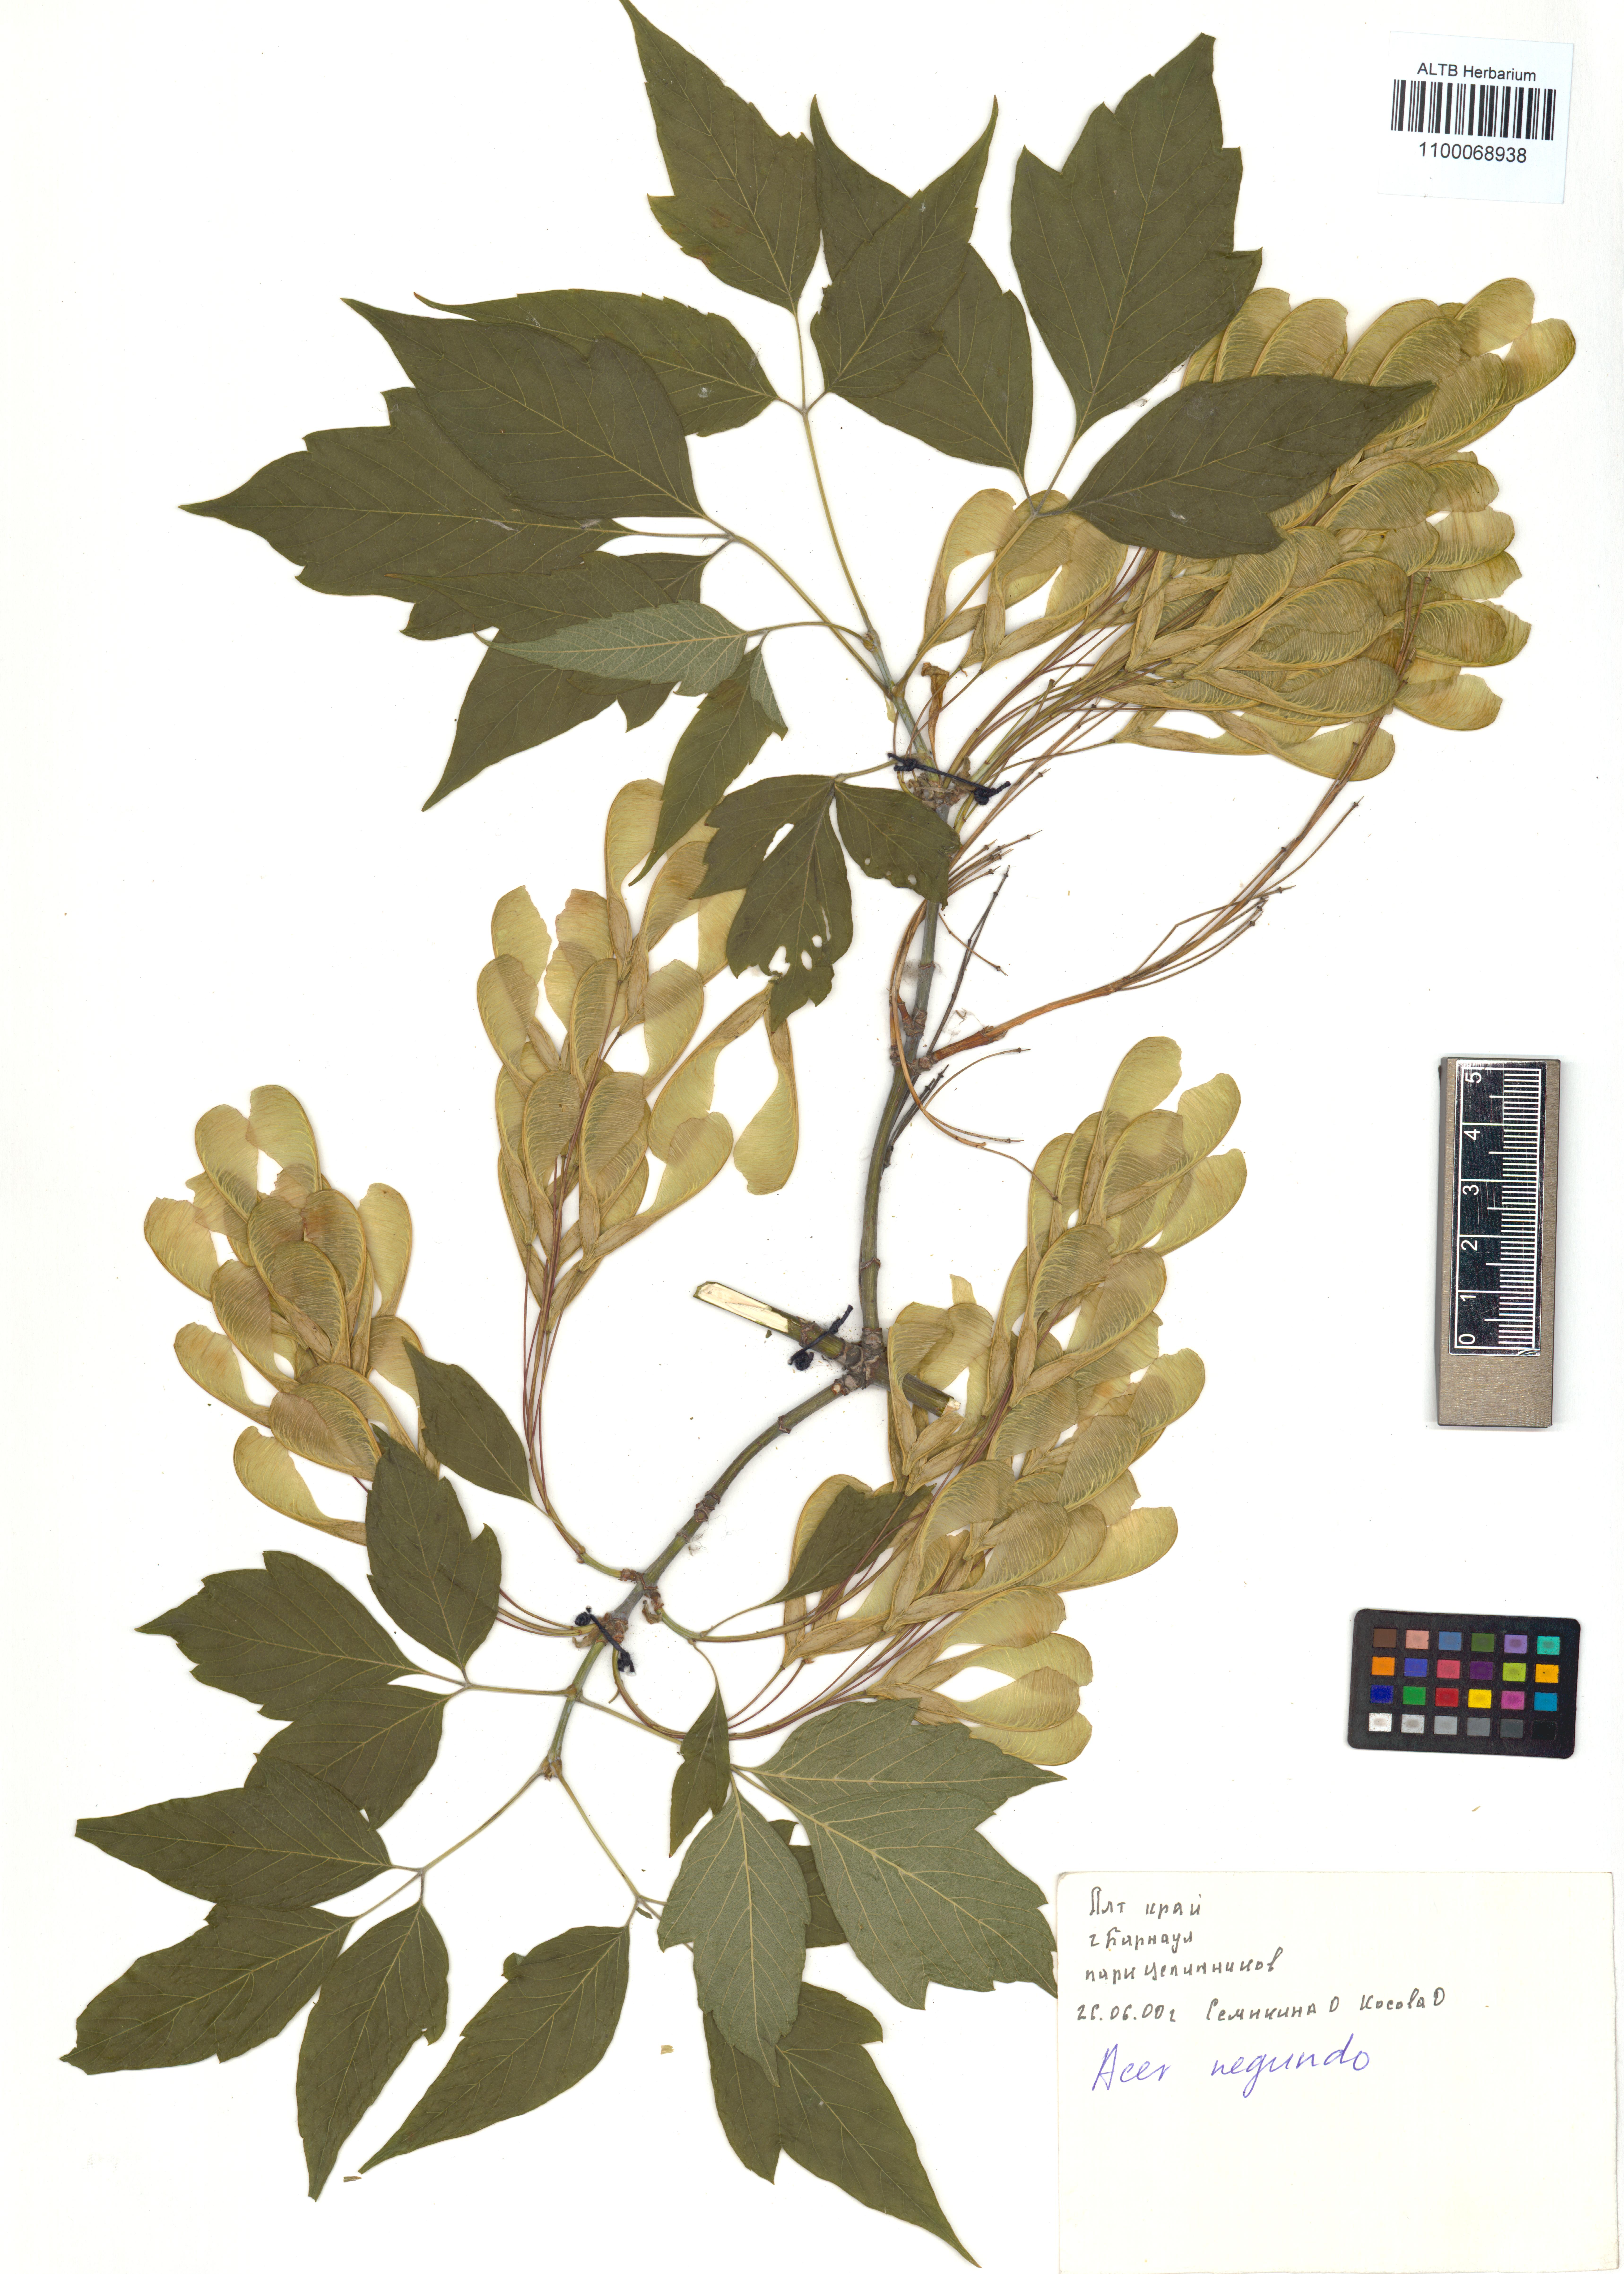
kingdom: Plantae
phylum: Tracheophyta
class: Magnoliopsida
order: Sapindales
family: Sapindaceae
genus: Acer
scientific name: Acer negundo
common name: Ashleaf maple
